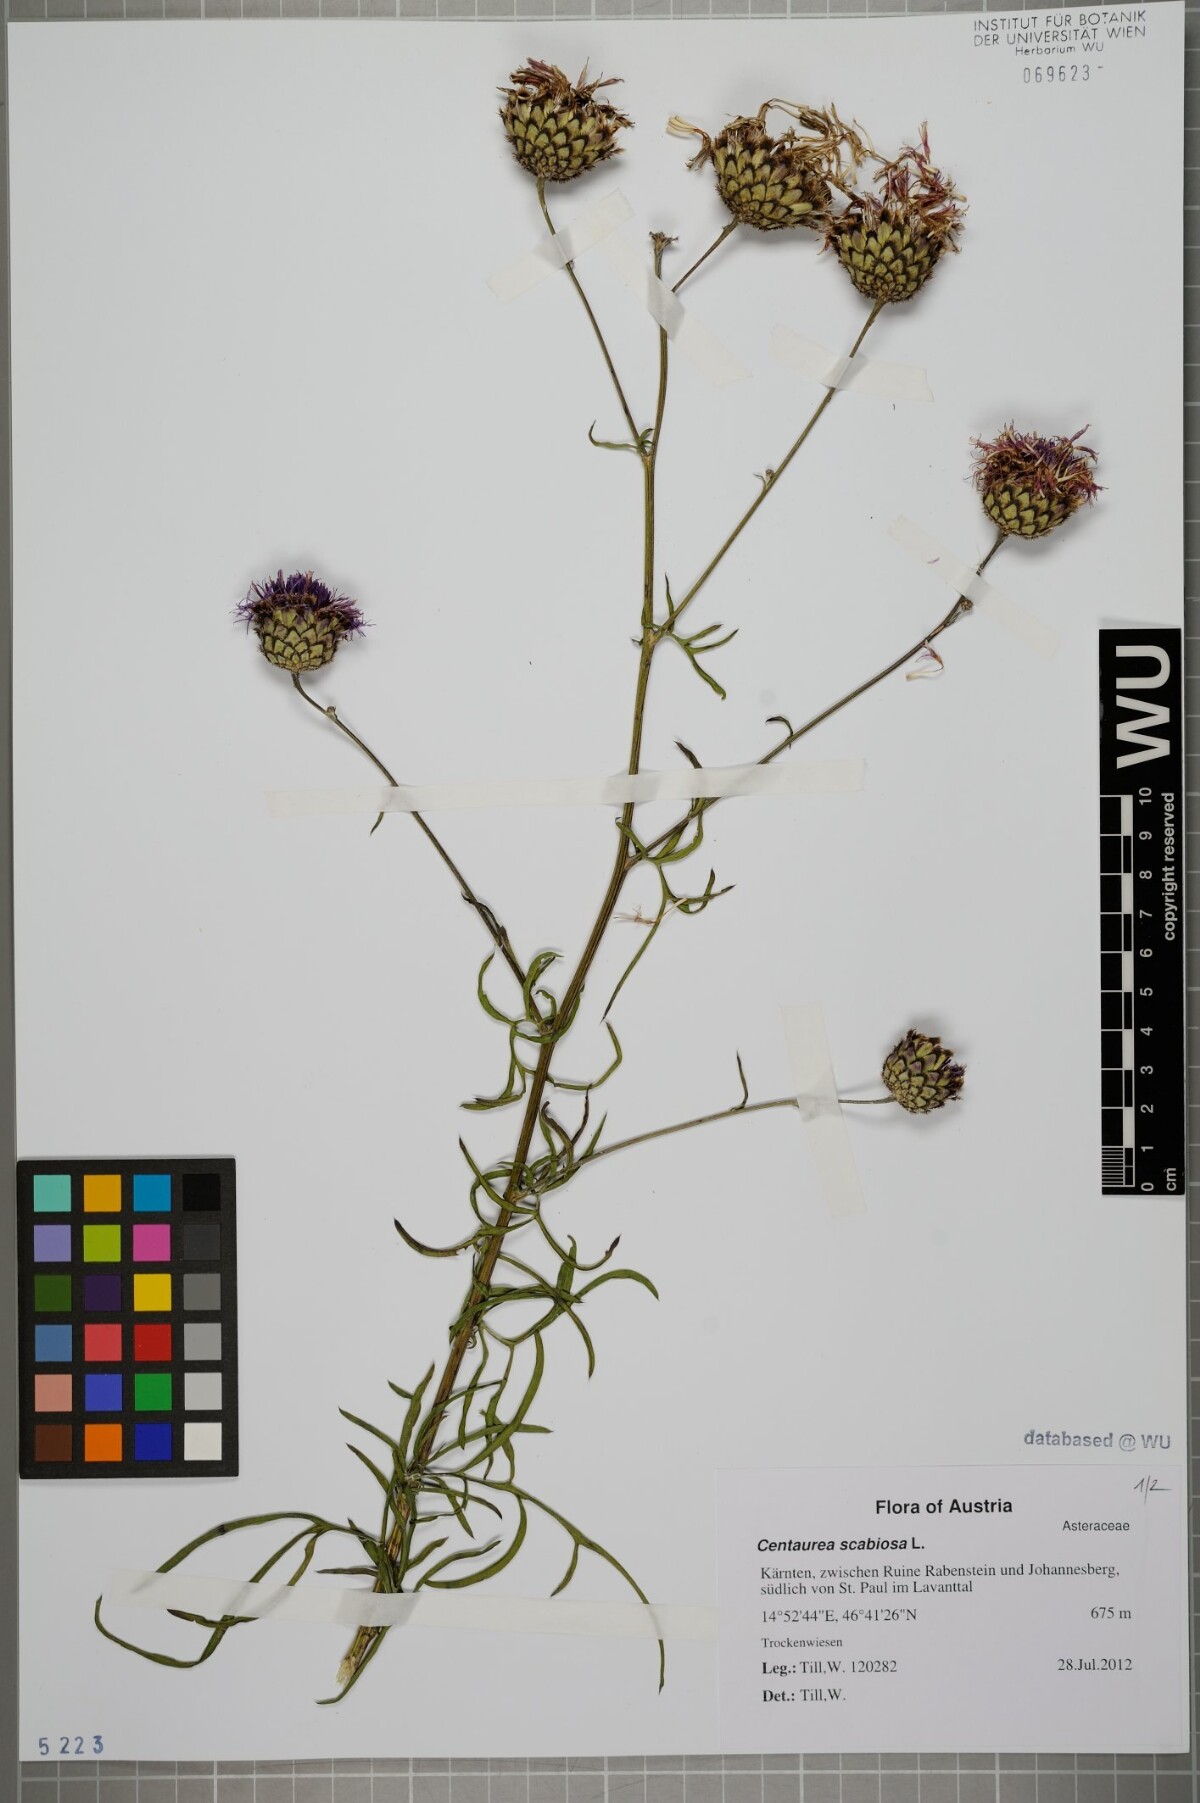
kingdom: Plantae
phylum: Tracheophyta
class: Magnoliopsida
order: Asterales
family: Asteraceae
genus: Centaurea
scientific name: Centaurea scabiosa
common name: Greater knapweed
